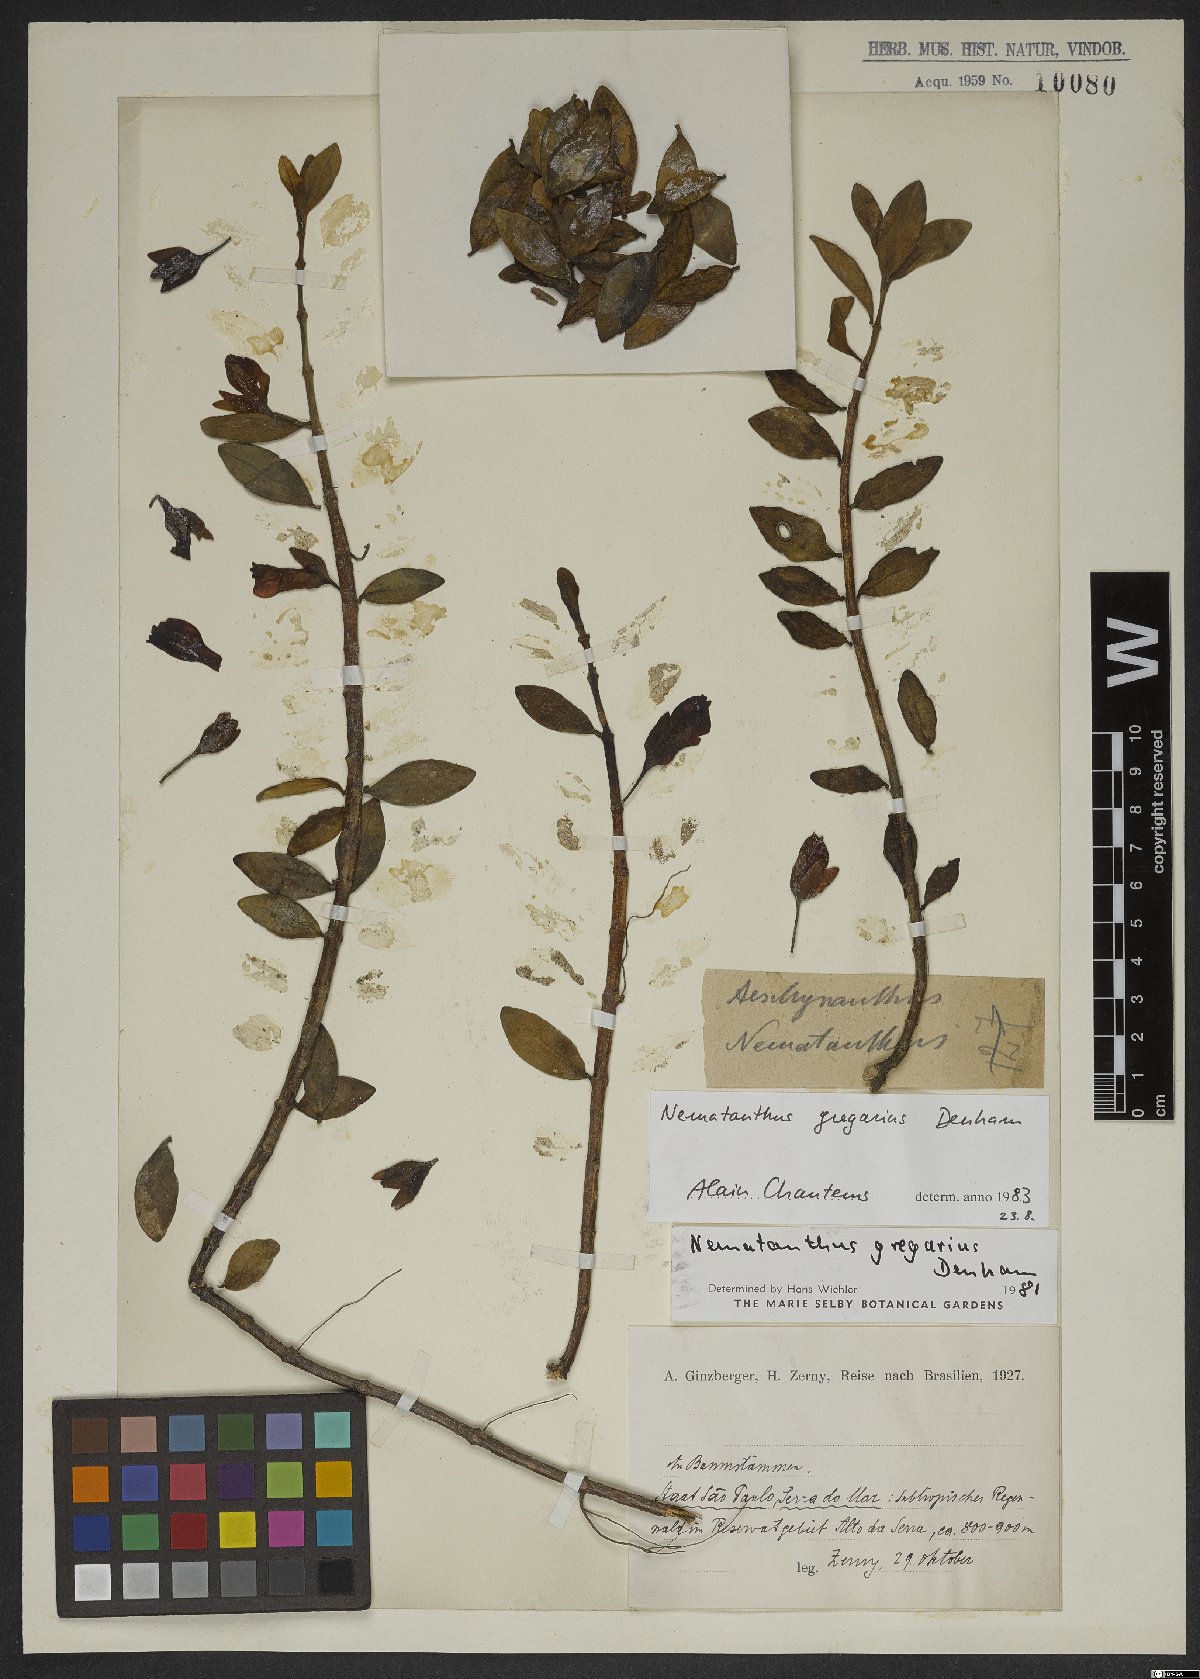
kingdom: Plantae
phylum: Tracheophyta
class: Magnoliopsida
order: Lamiales
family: Gesneriaceae
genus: Nematanthus
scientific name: Nematanthus gregarius
